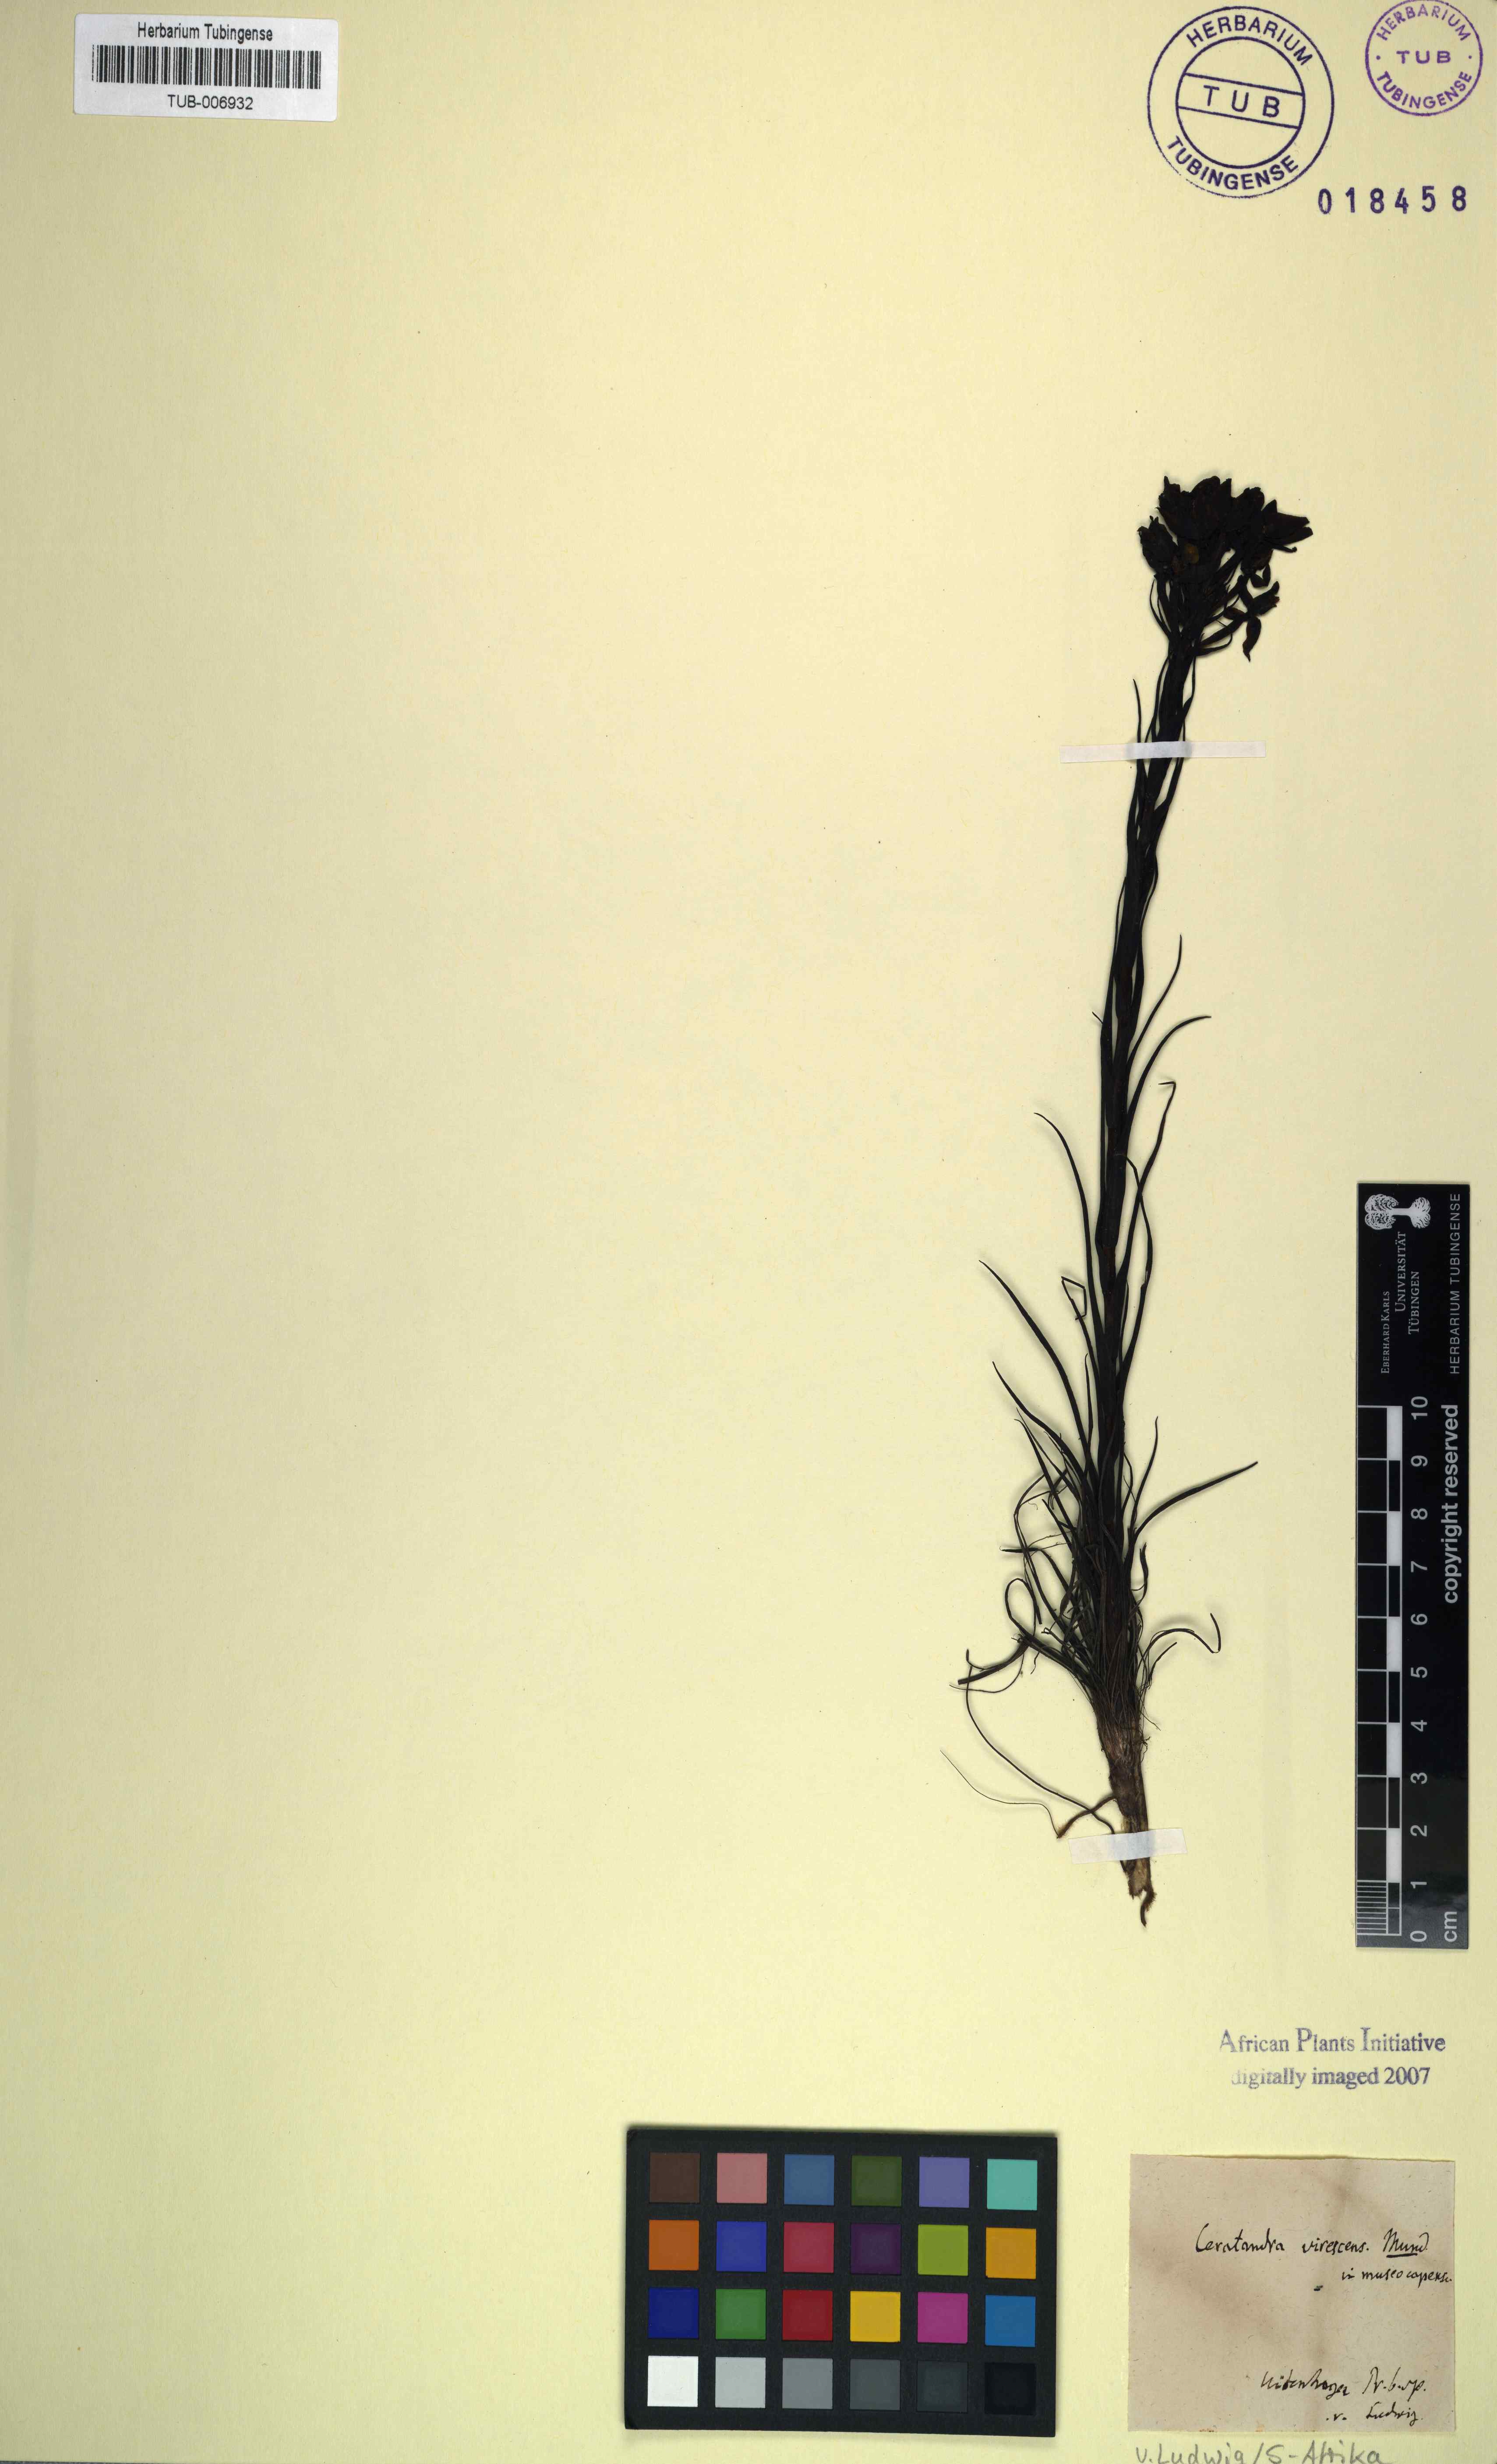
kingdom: Plantae
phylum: Tracheophyta
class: Liliopsida
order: Asparagales
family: Orchidaceae
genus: Ceratandra
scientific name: Ceratandra
